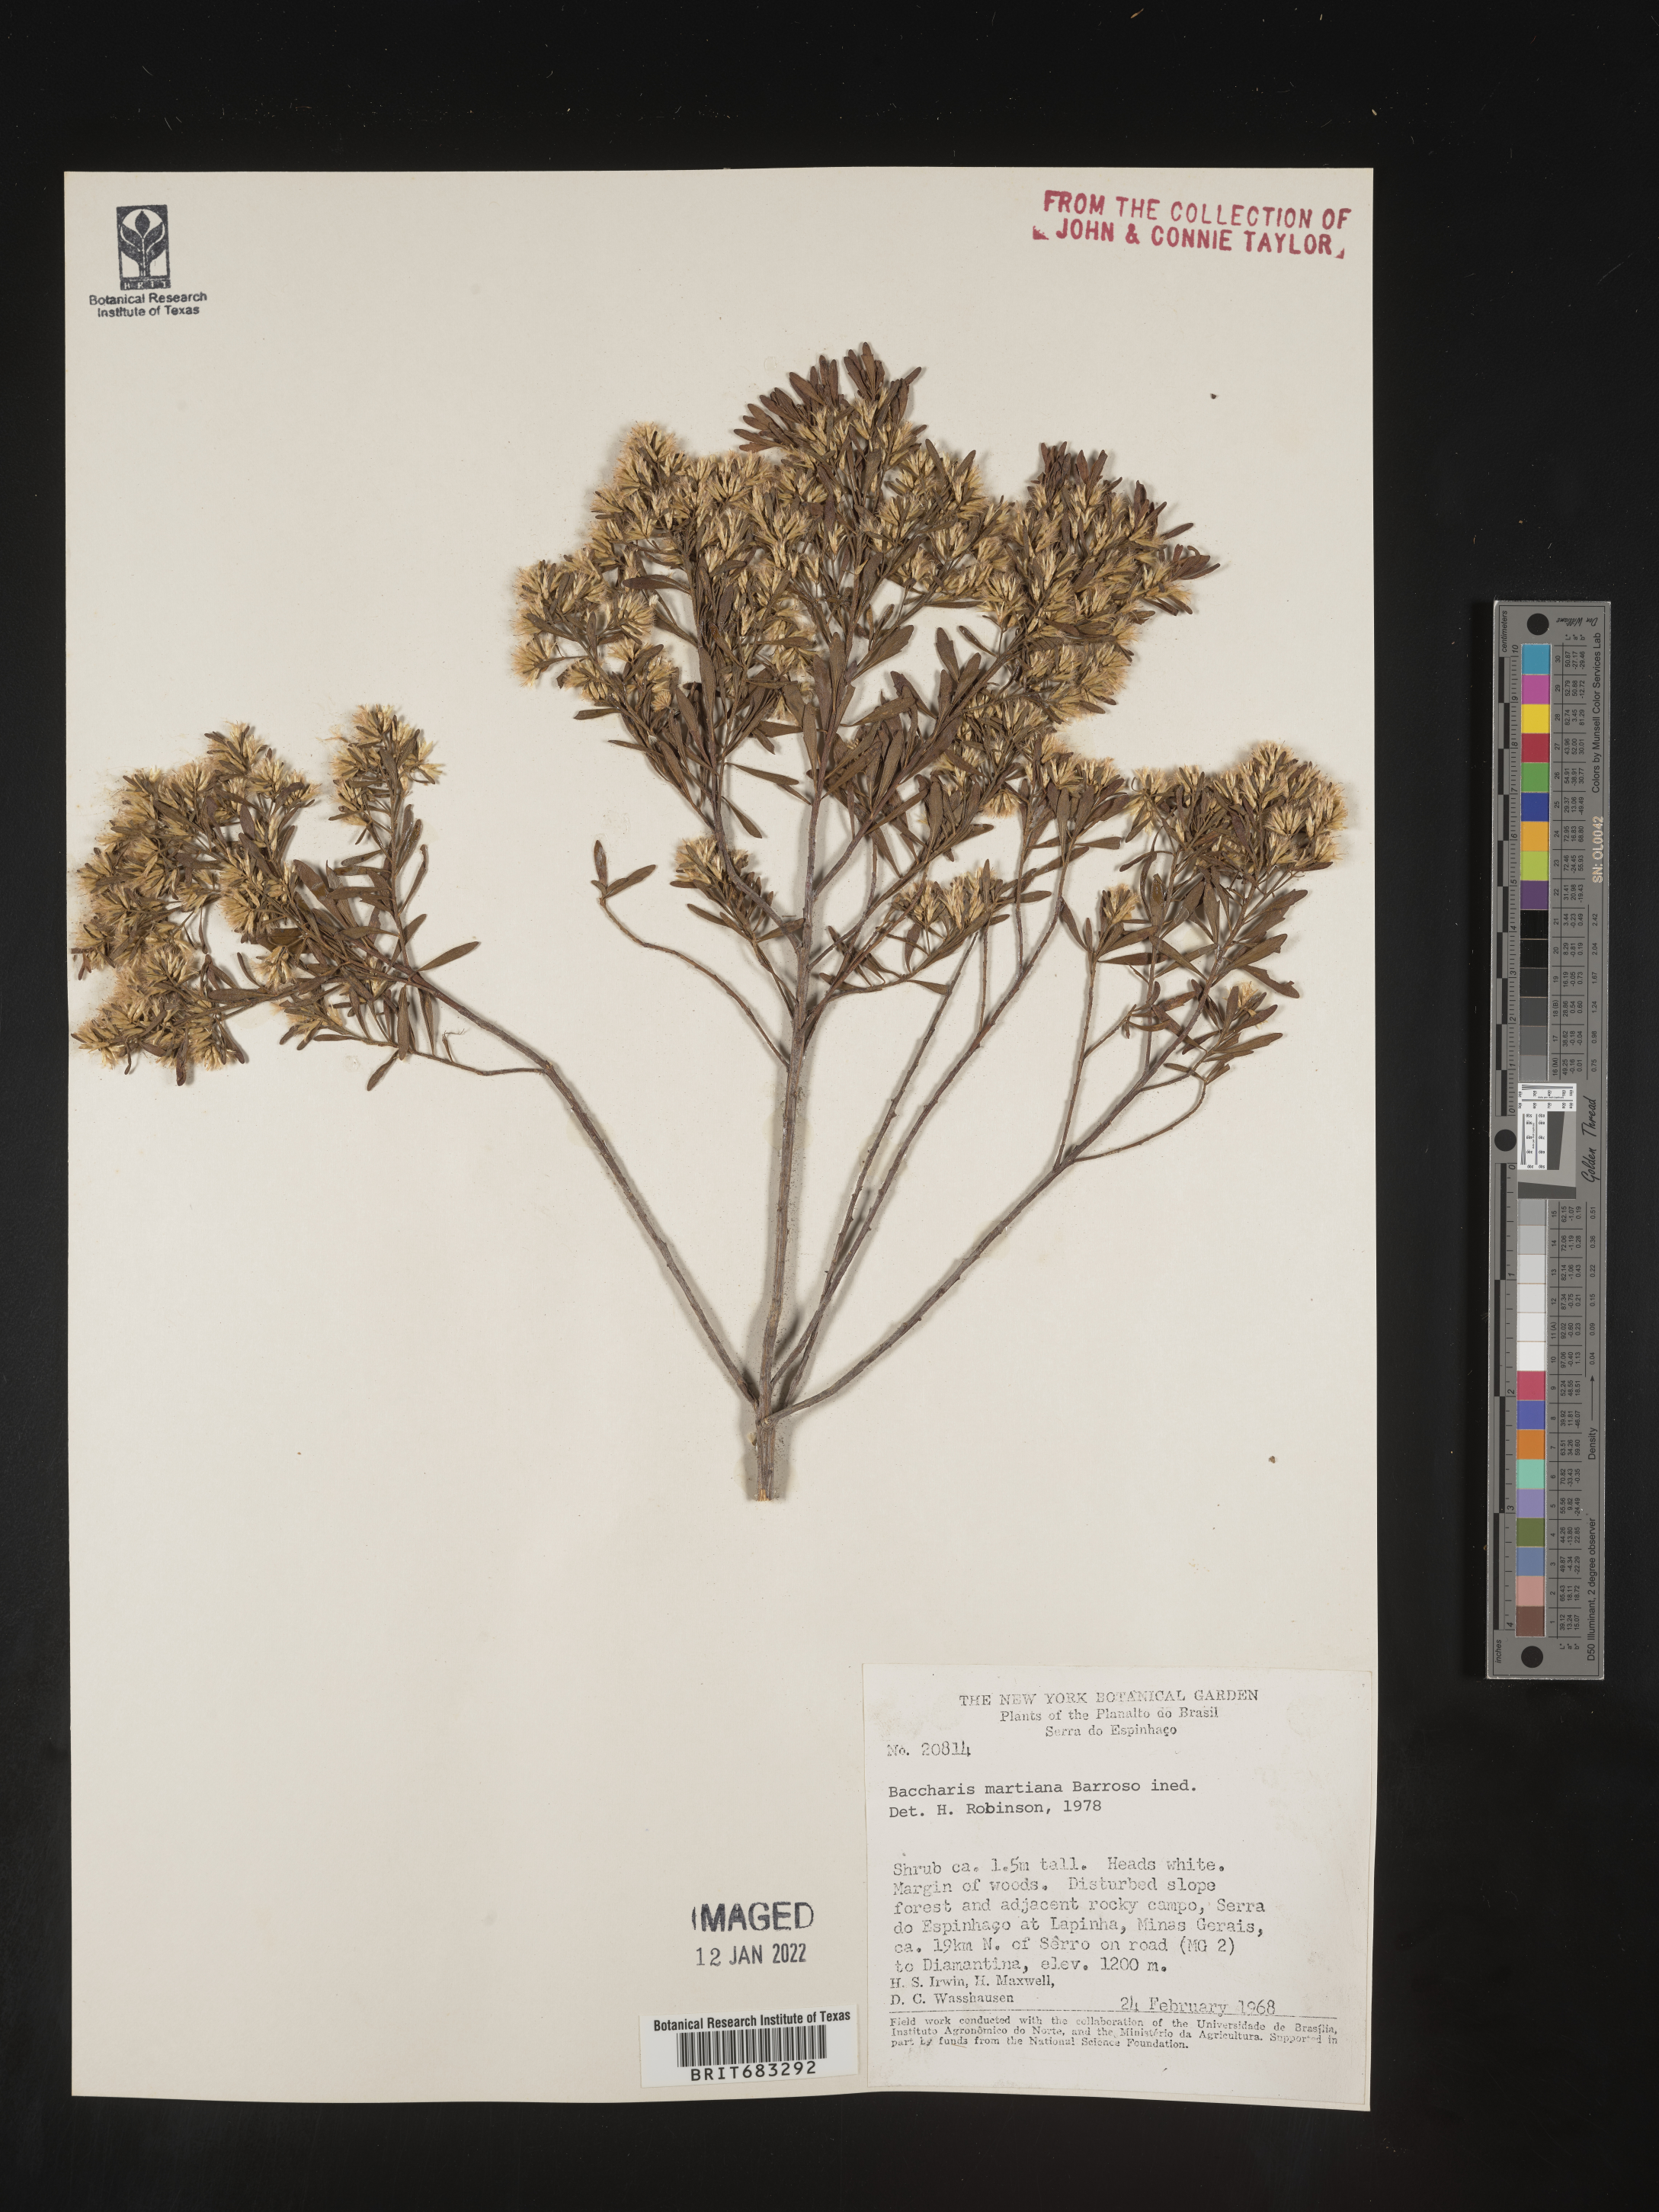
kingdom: Plantae
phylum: Tracheophyta
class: Magnoliopsida
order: Asterales
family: Asteraceae
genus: Baccharis
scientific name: Baccharis
